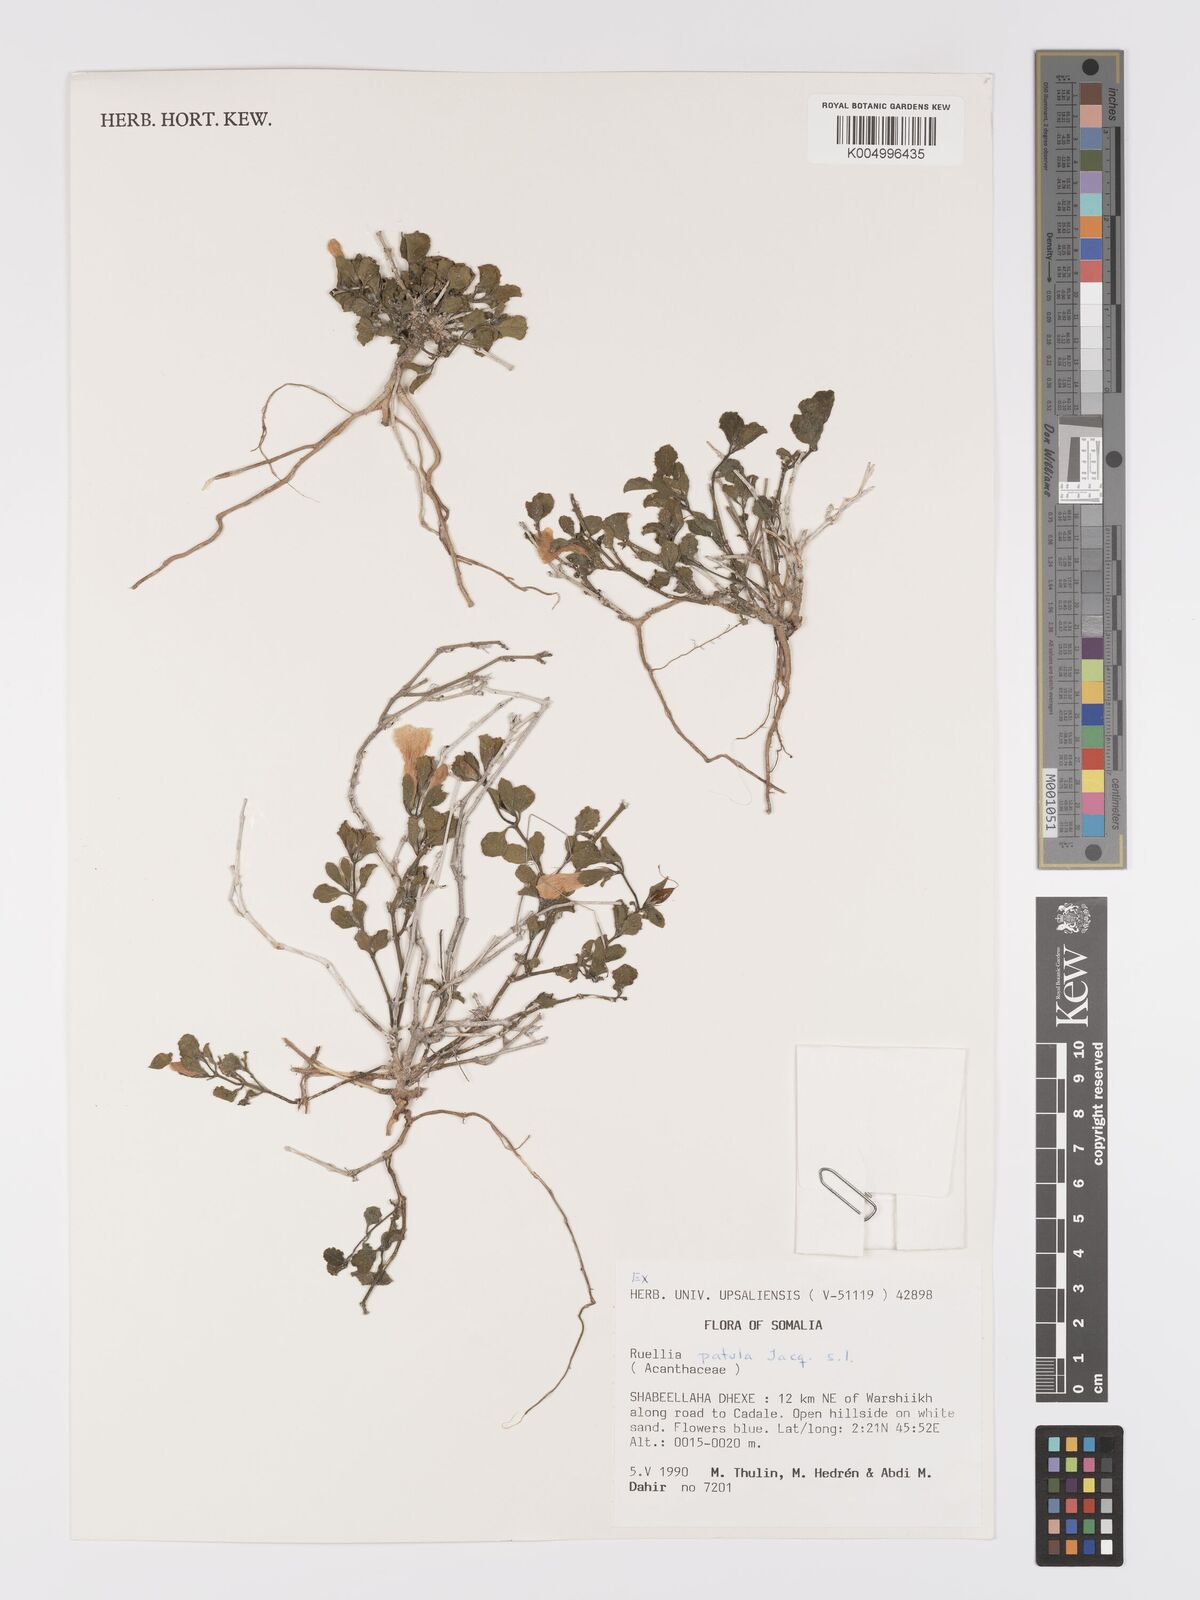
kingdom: Plantae
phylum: Tracheophyta
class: Magnoliopsida
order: Lamiales
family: Acanthaceae
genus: Ruellia
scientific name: Ruellia patula
